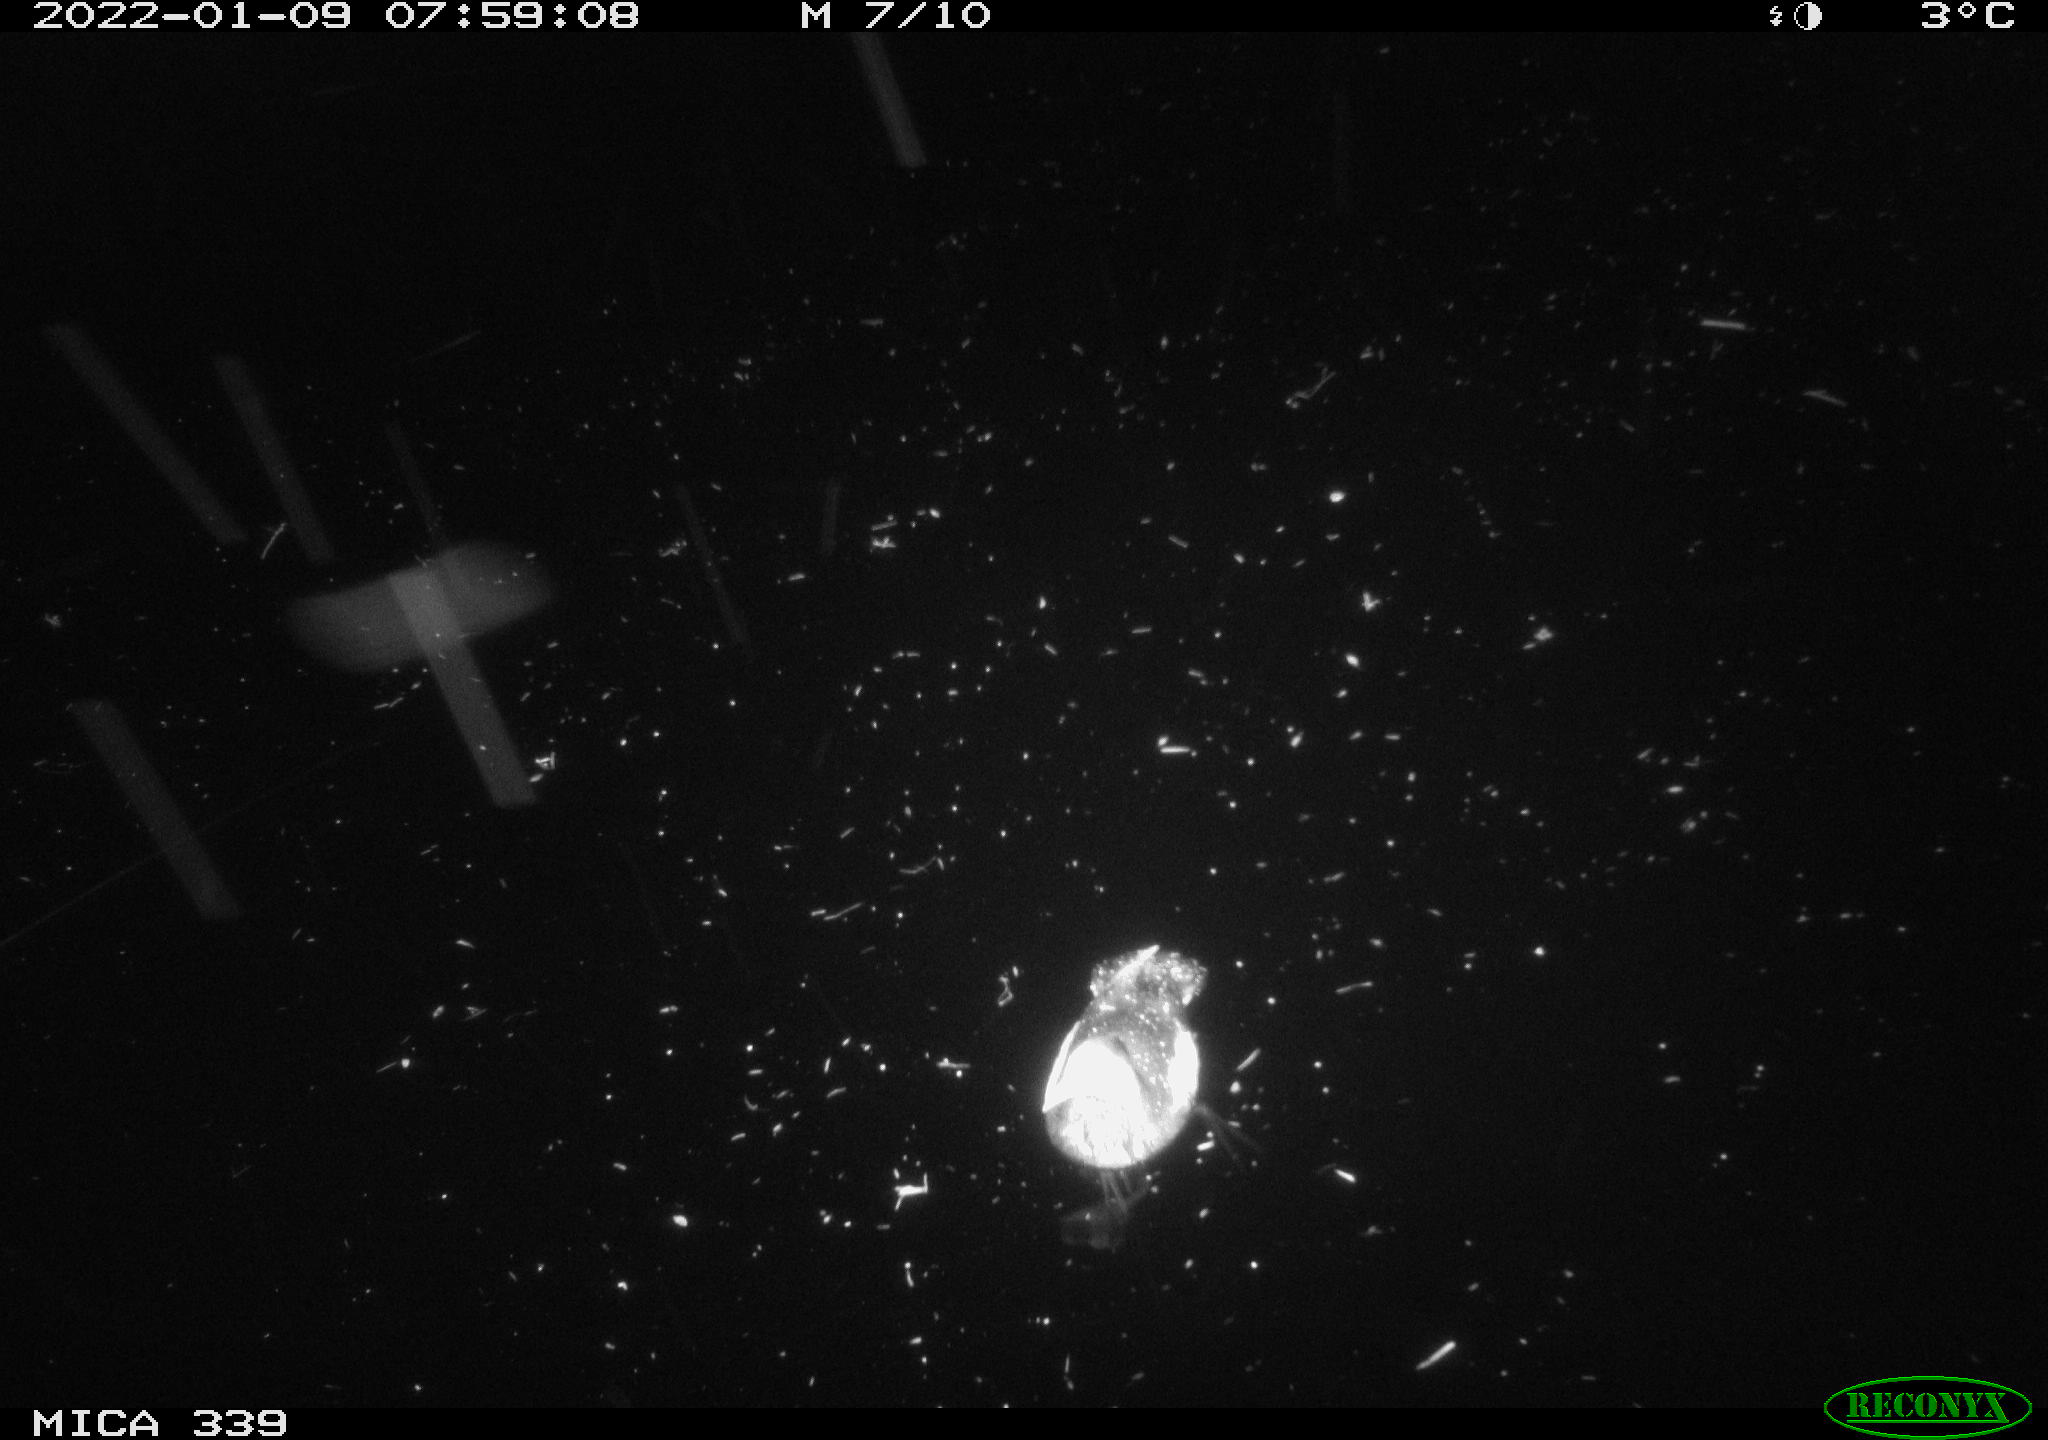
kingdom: Animalia
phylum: Chordata
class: Aves
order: Gruiformes
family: Rallidae
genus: Gallinula
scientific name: Gallinula chloropus
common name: Common moorhen
